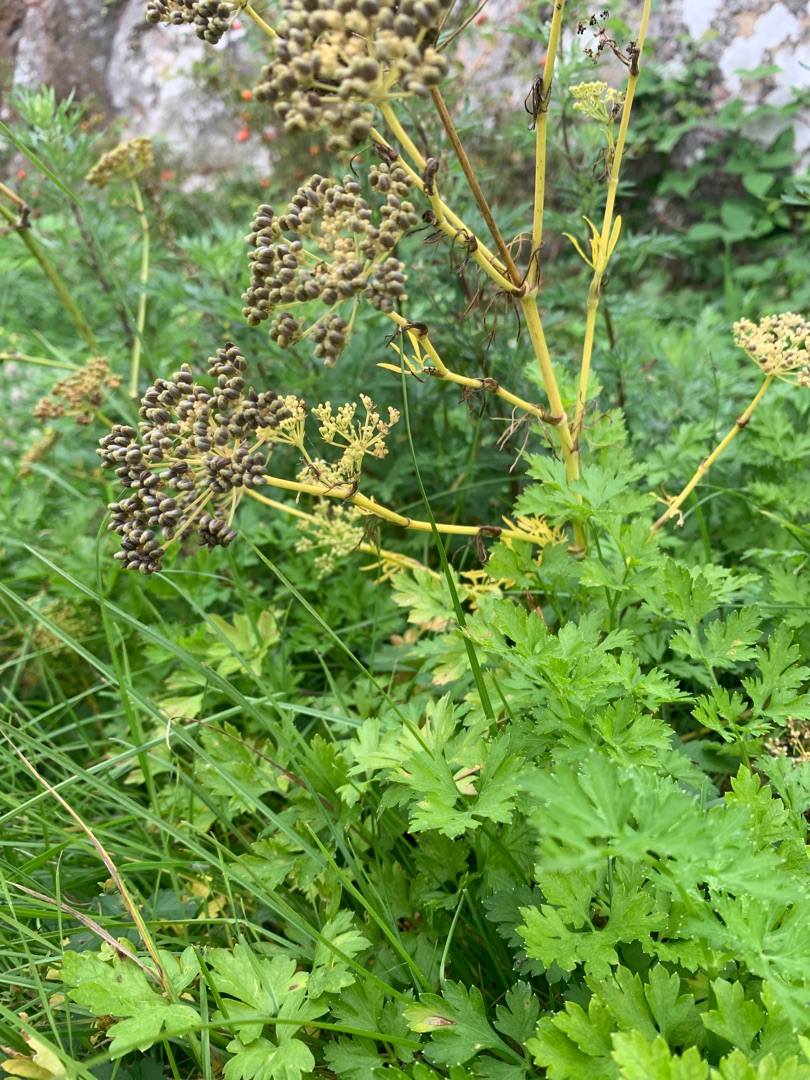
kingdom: Plantae
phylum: Tracheophyta
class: Magnoliopsida
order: Apiales
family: Apiaceae
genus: Petroselinum
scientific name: Petroselinum crispum
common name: Persille
